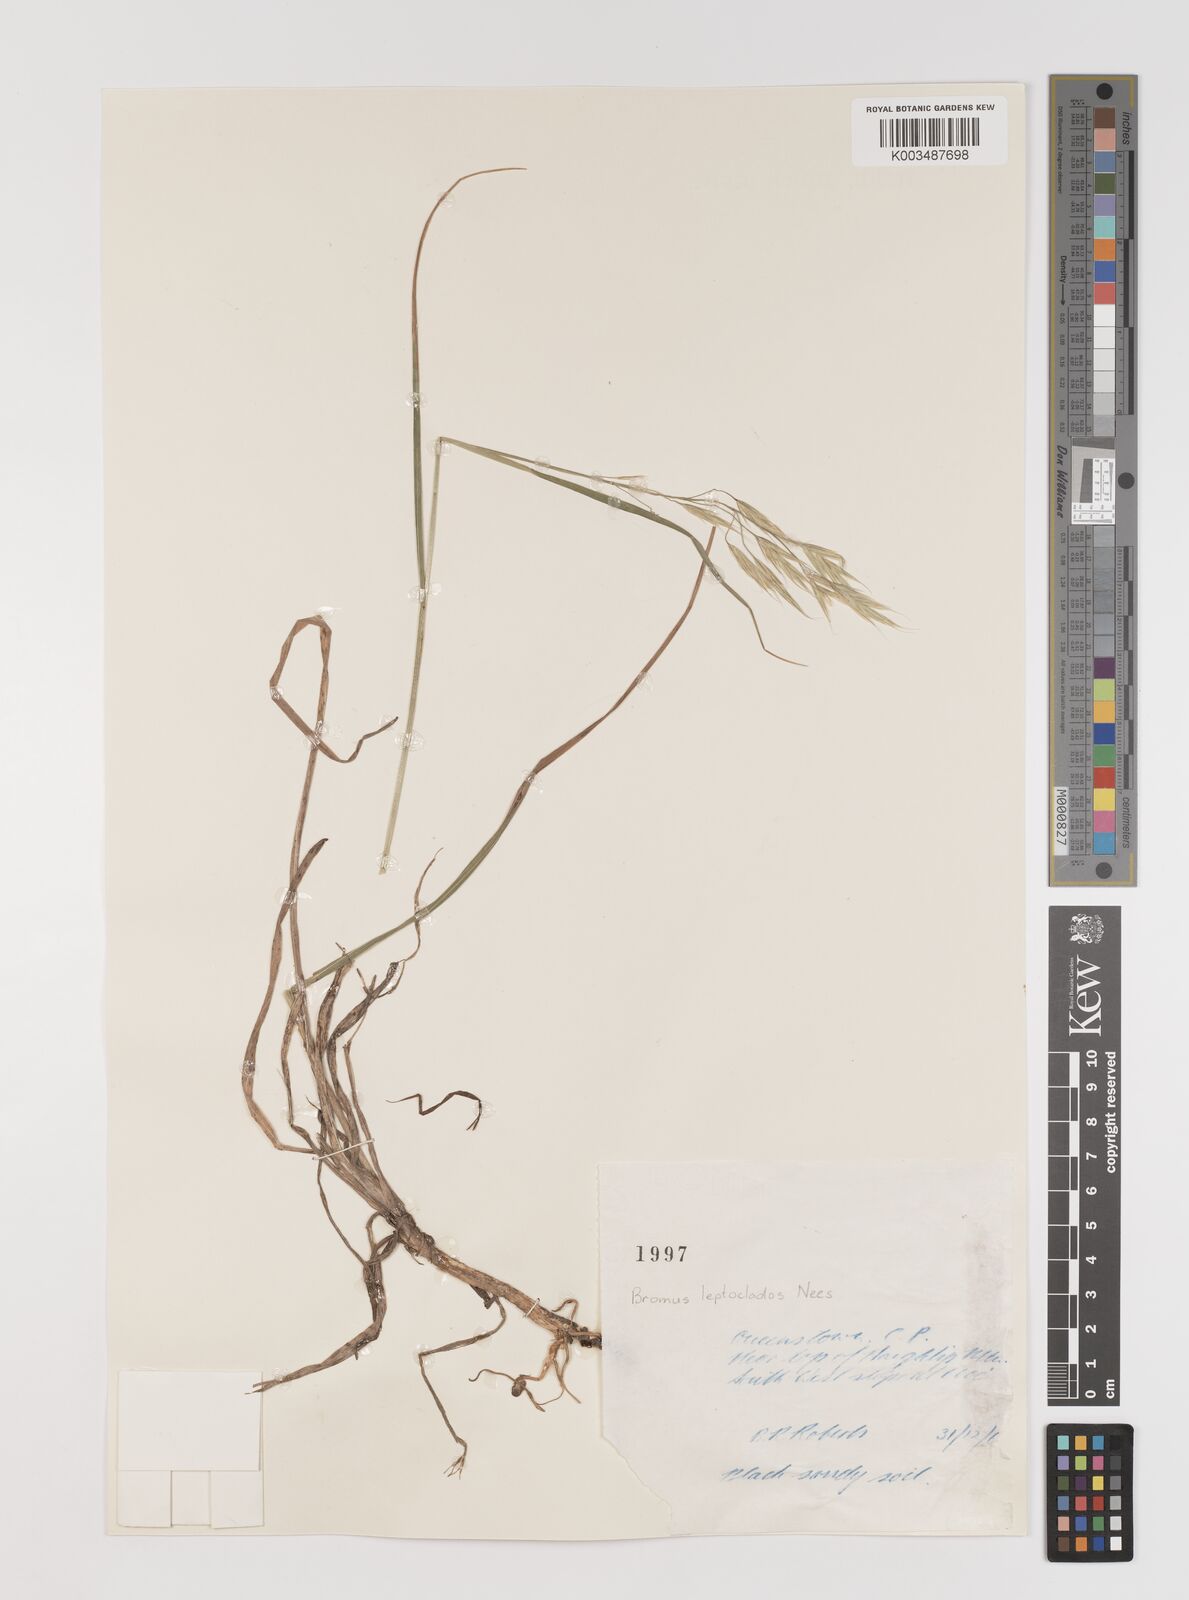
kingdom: Plantae
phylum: Tracheophyta
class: Liliopsida
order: Poales
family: Poaceae
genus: Bromus
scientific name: Bromus leptoclados
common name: Mountain bromegrass
